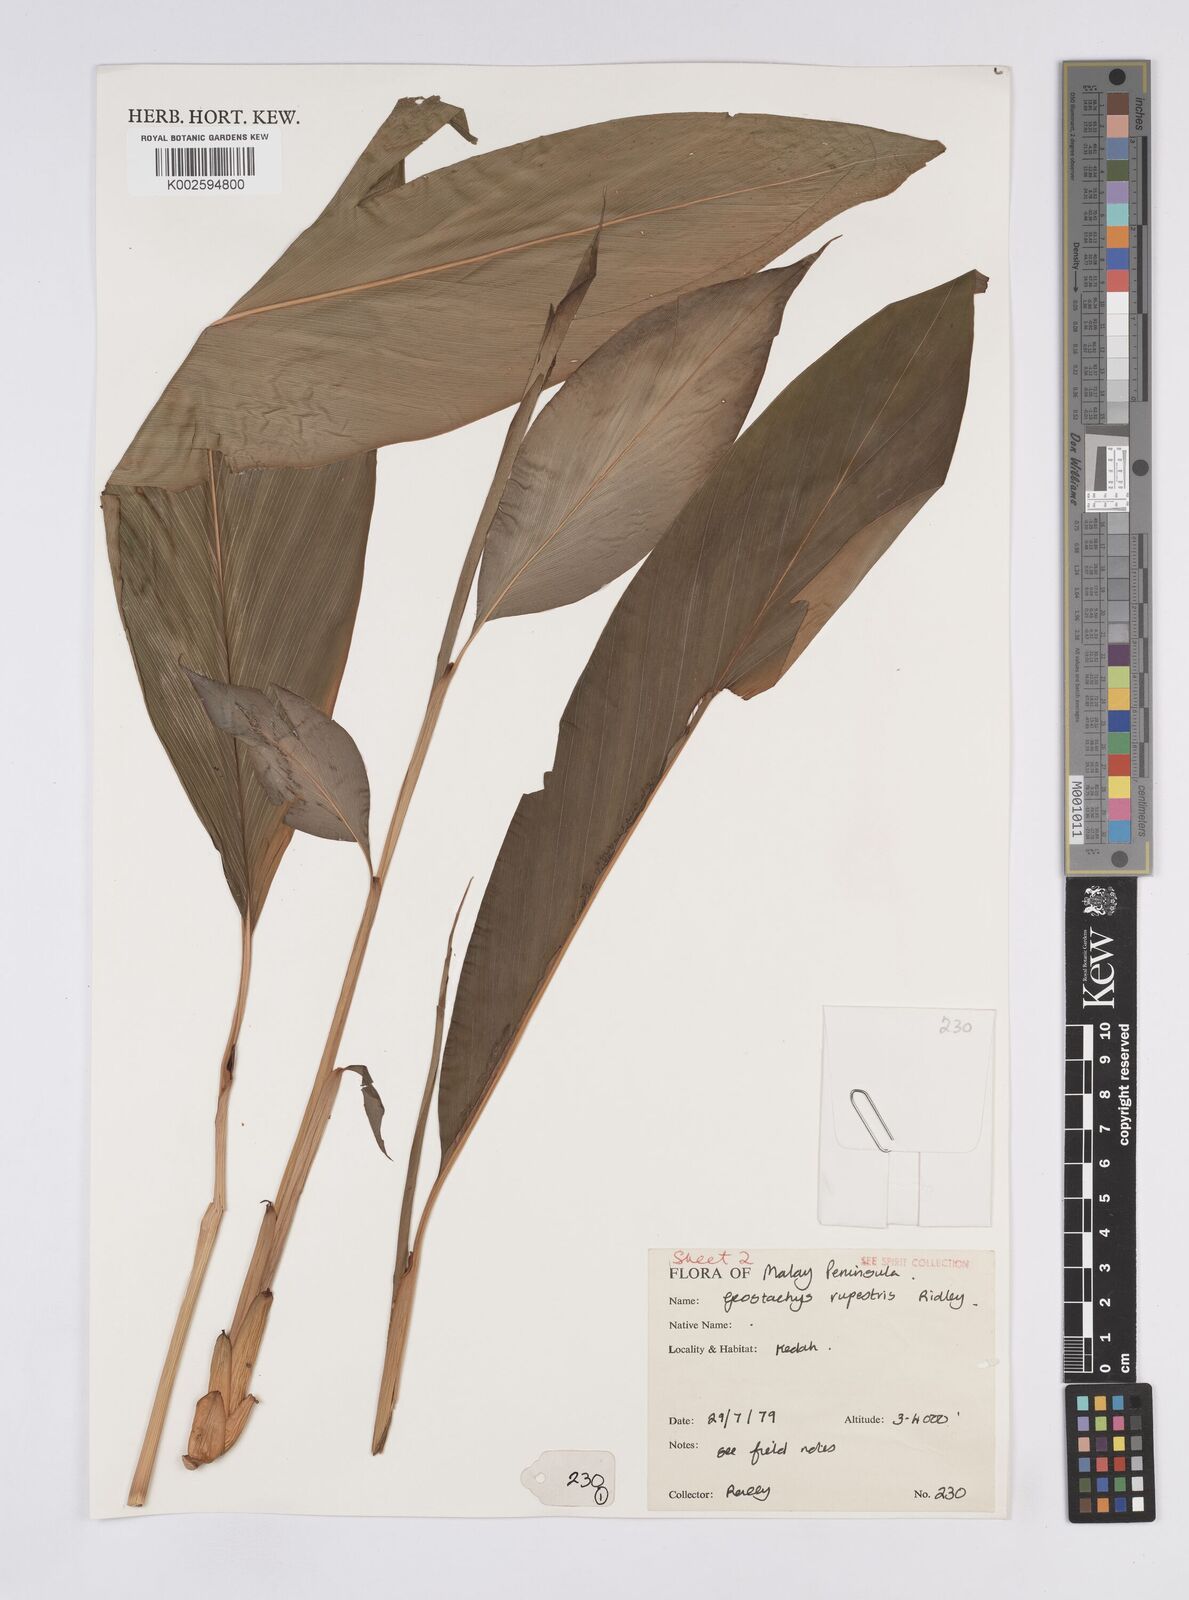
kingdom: Plantae
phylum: Tracheophyta
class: Liliopsida
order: Zingiberales
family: Zingiberaceae
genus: Geostachys
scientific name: Geostachys rupestris
